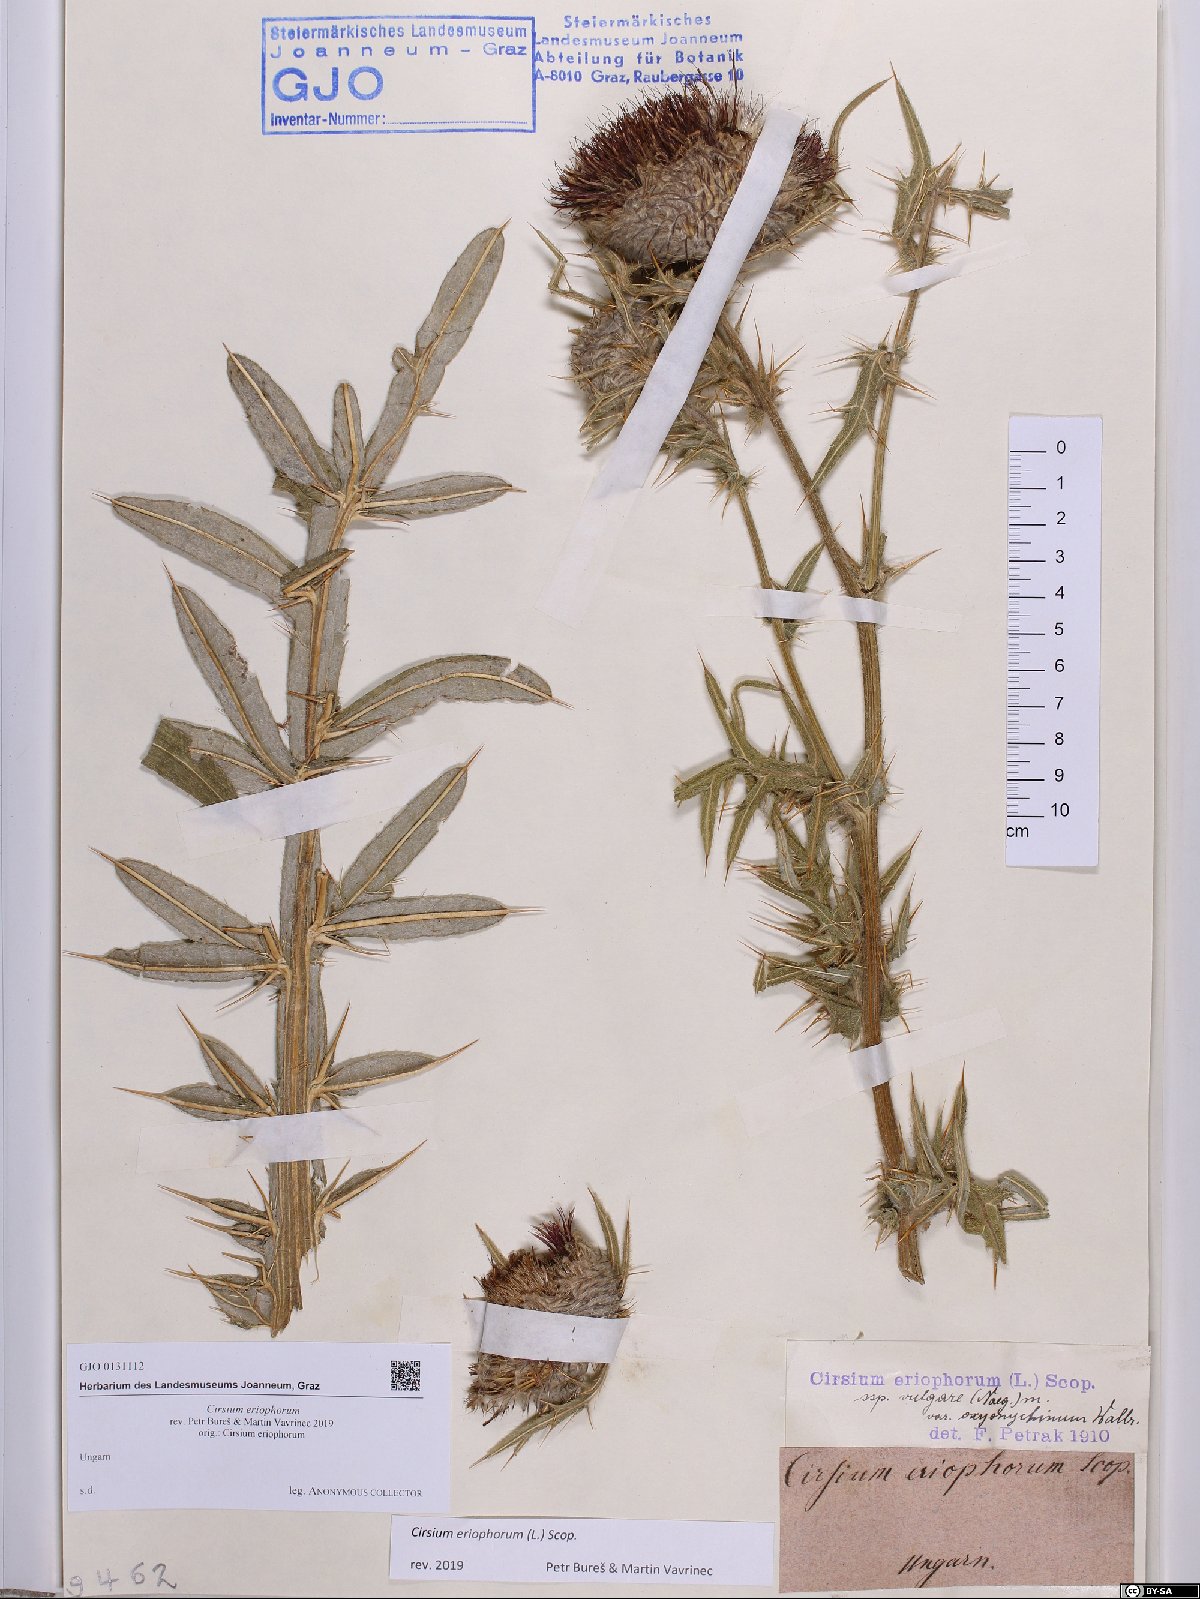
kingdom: Plantae
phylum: Tracheophyta
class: Magnoliopsida
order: Asterales
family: Asteraceae
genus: Lophiolepis
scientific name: Lophiolepis eriophora
